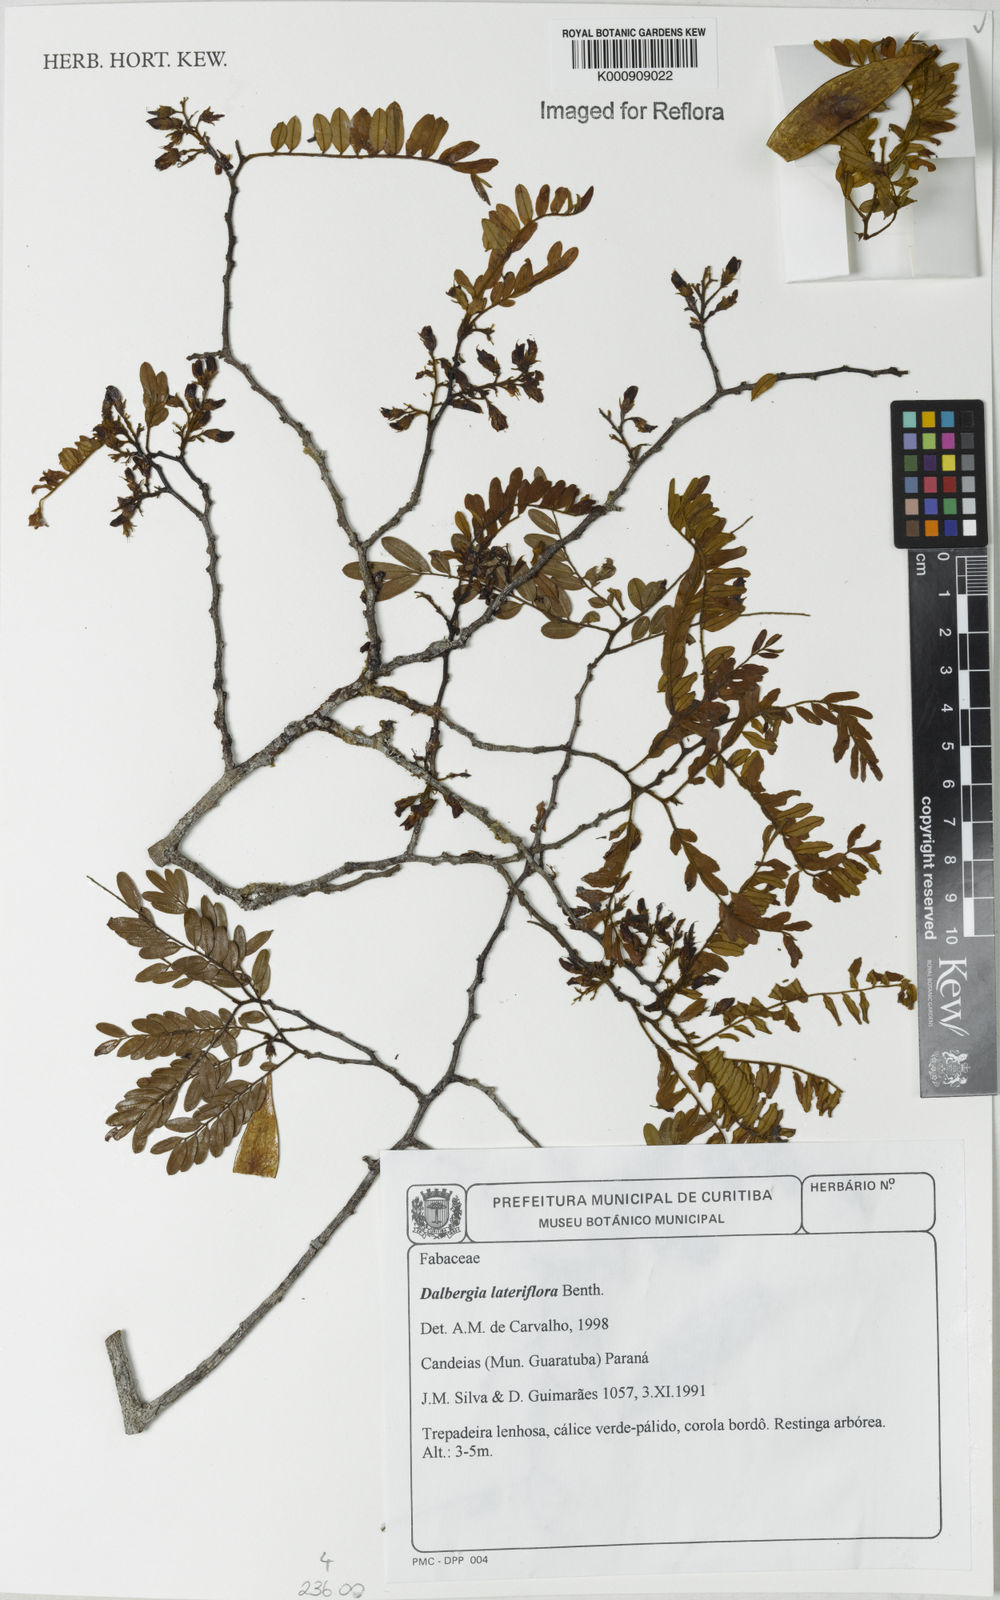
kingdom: Plantae
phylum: Tracheophyta
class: Magnoliopsida
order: Fabales
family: Fabaceae
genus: Dalbergia
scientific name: Dalbergia lateriflora
